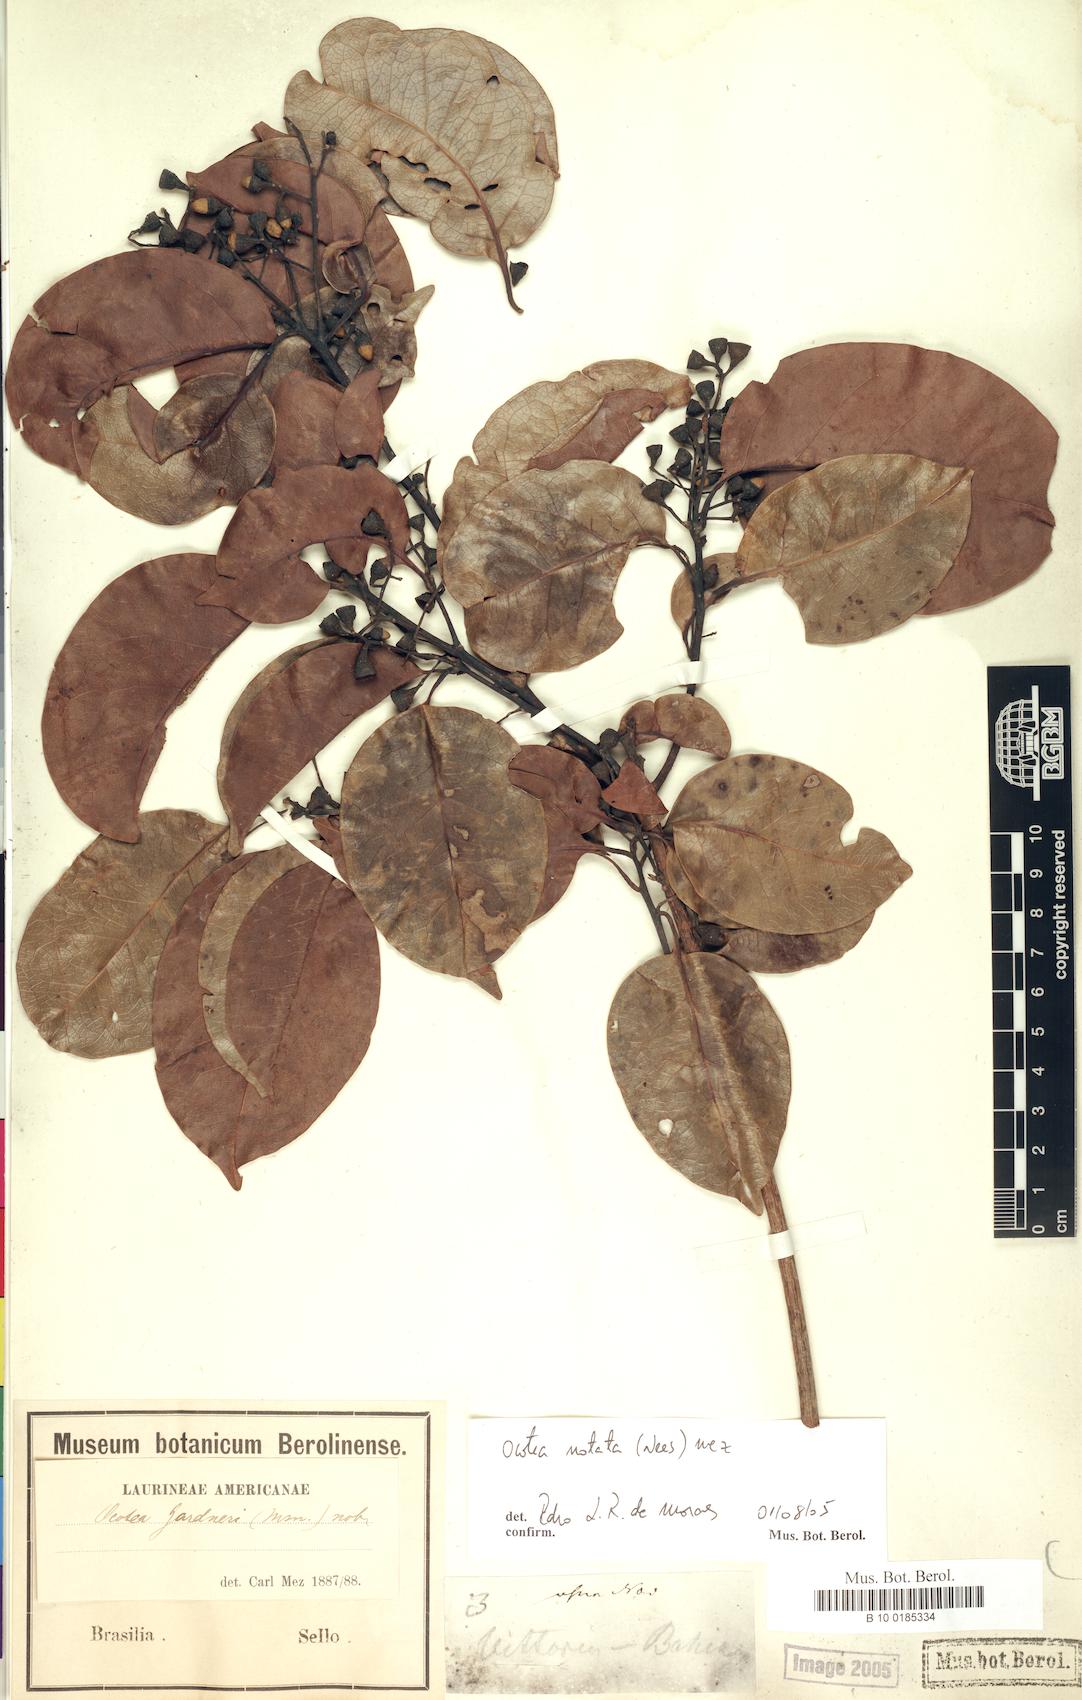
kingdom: Plantae
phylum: Tracheophyta
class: Magnoliopsida
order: Laurales
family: Lauraceae
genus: Mespilodaphne
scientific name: Mespilodaphne notata
